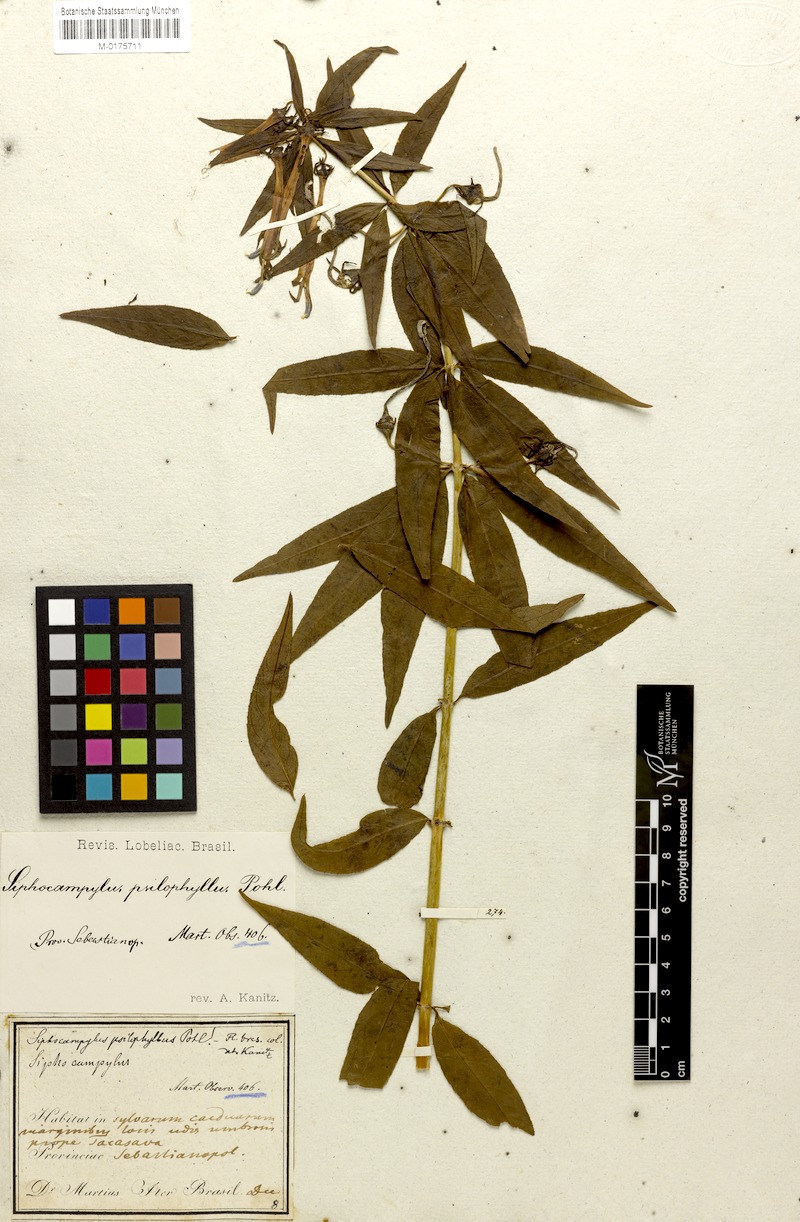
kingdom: Plantae
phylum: Tracheophyta
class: Magnoliopsida
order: Asterales
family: Campanulaceae
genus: Siphocampylus
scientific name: Siphocampylus psilophyllus
